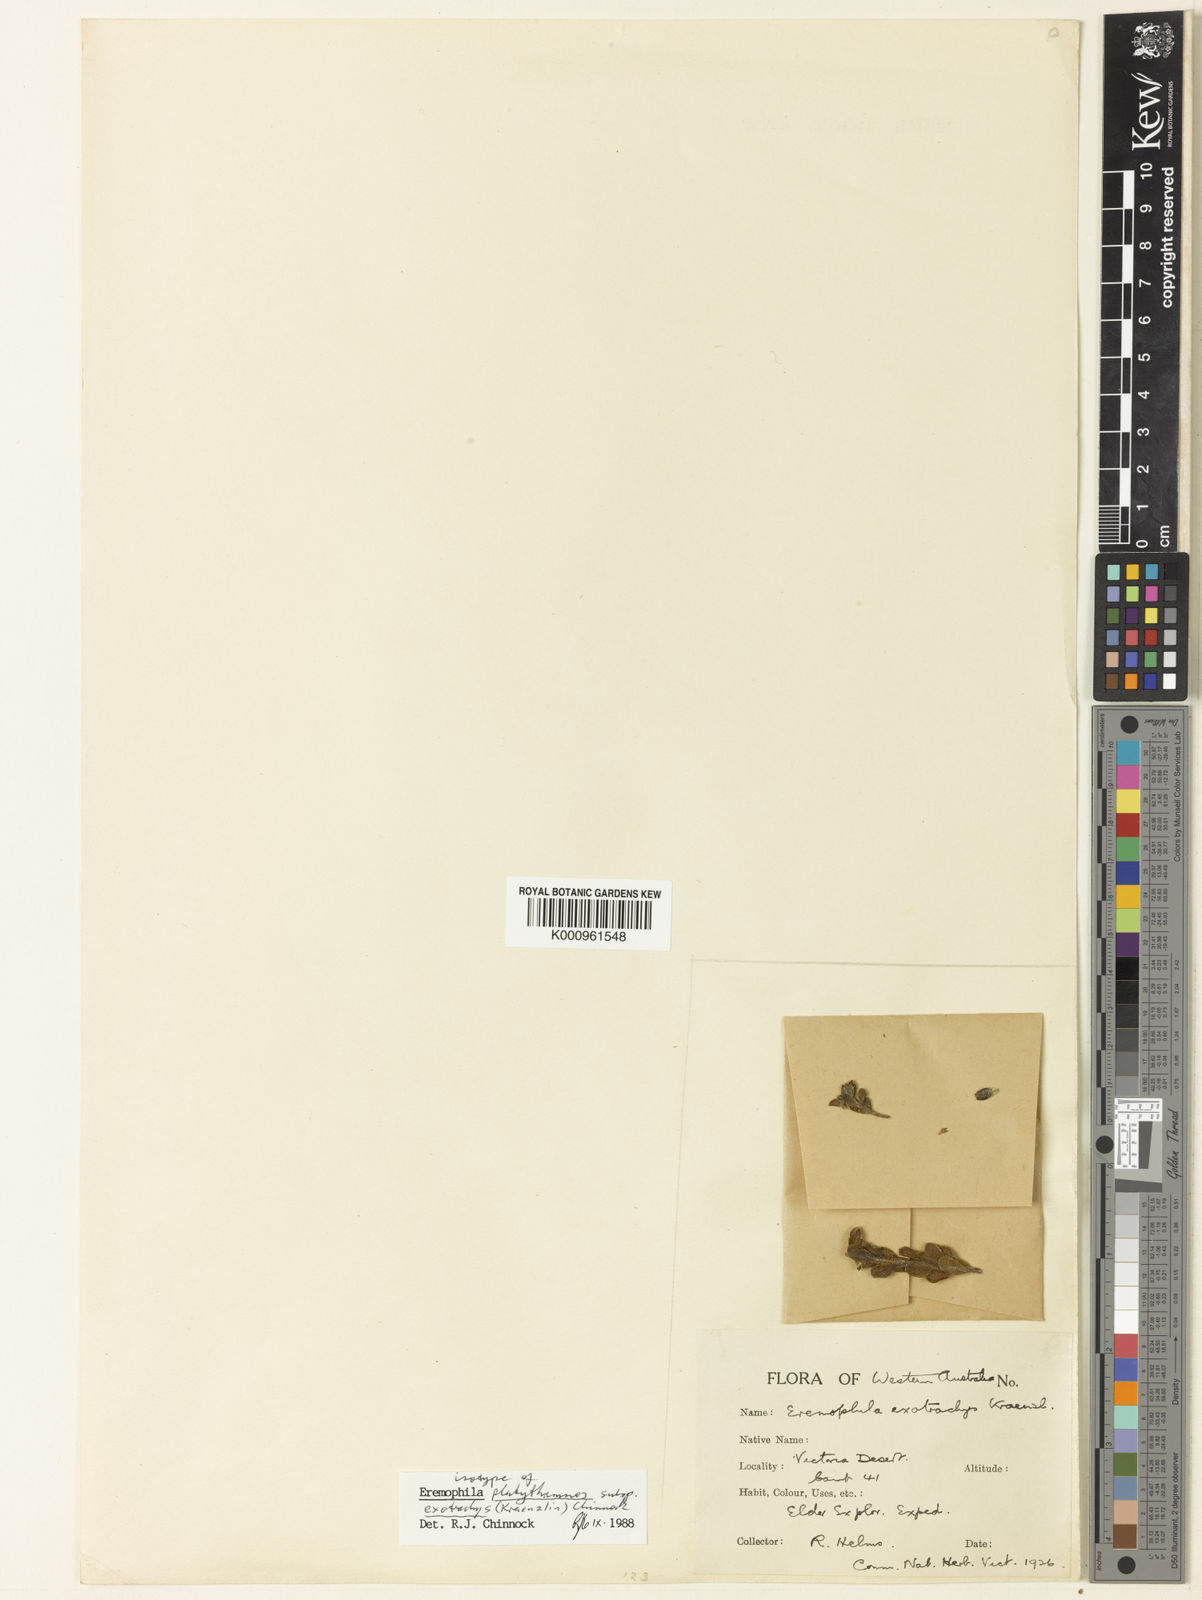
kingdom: Plantae
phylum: Tracheophyta
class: Magnoliopsida
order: Lamiales
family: Scrophulariaceae
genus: Eremophila
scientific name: Eremophila platythamnos
